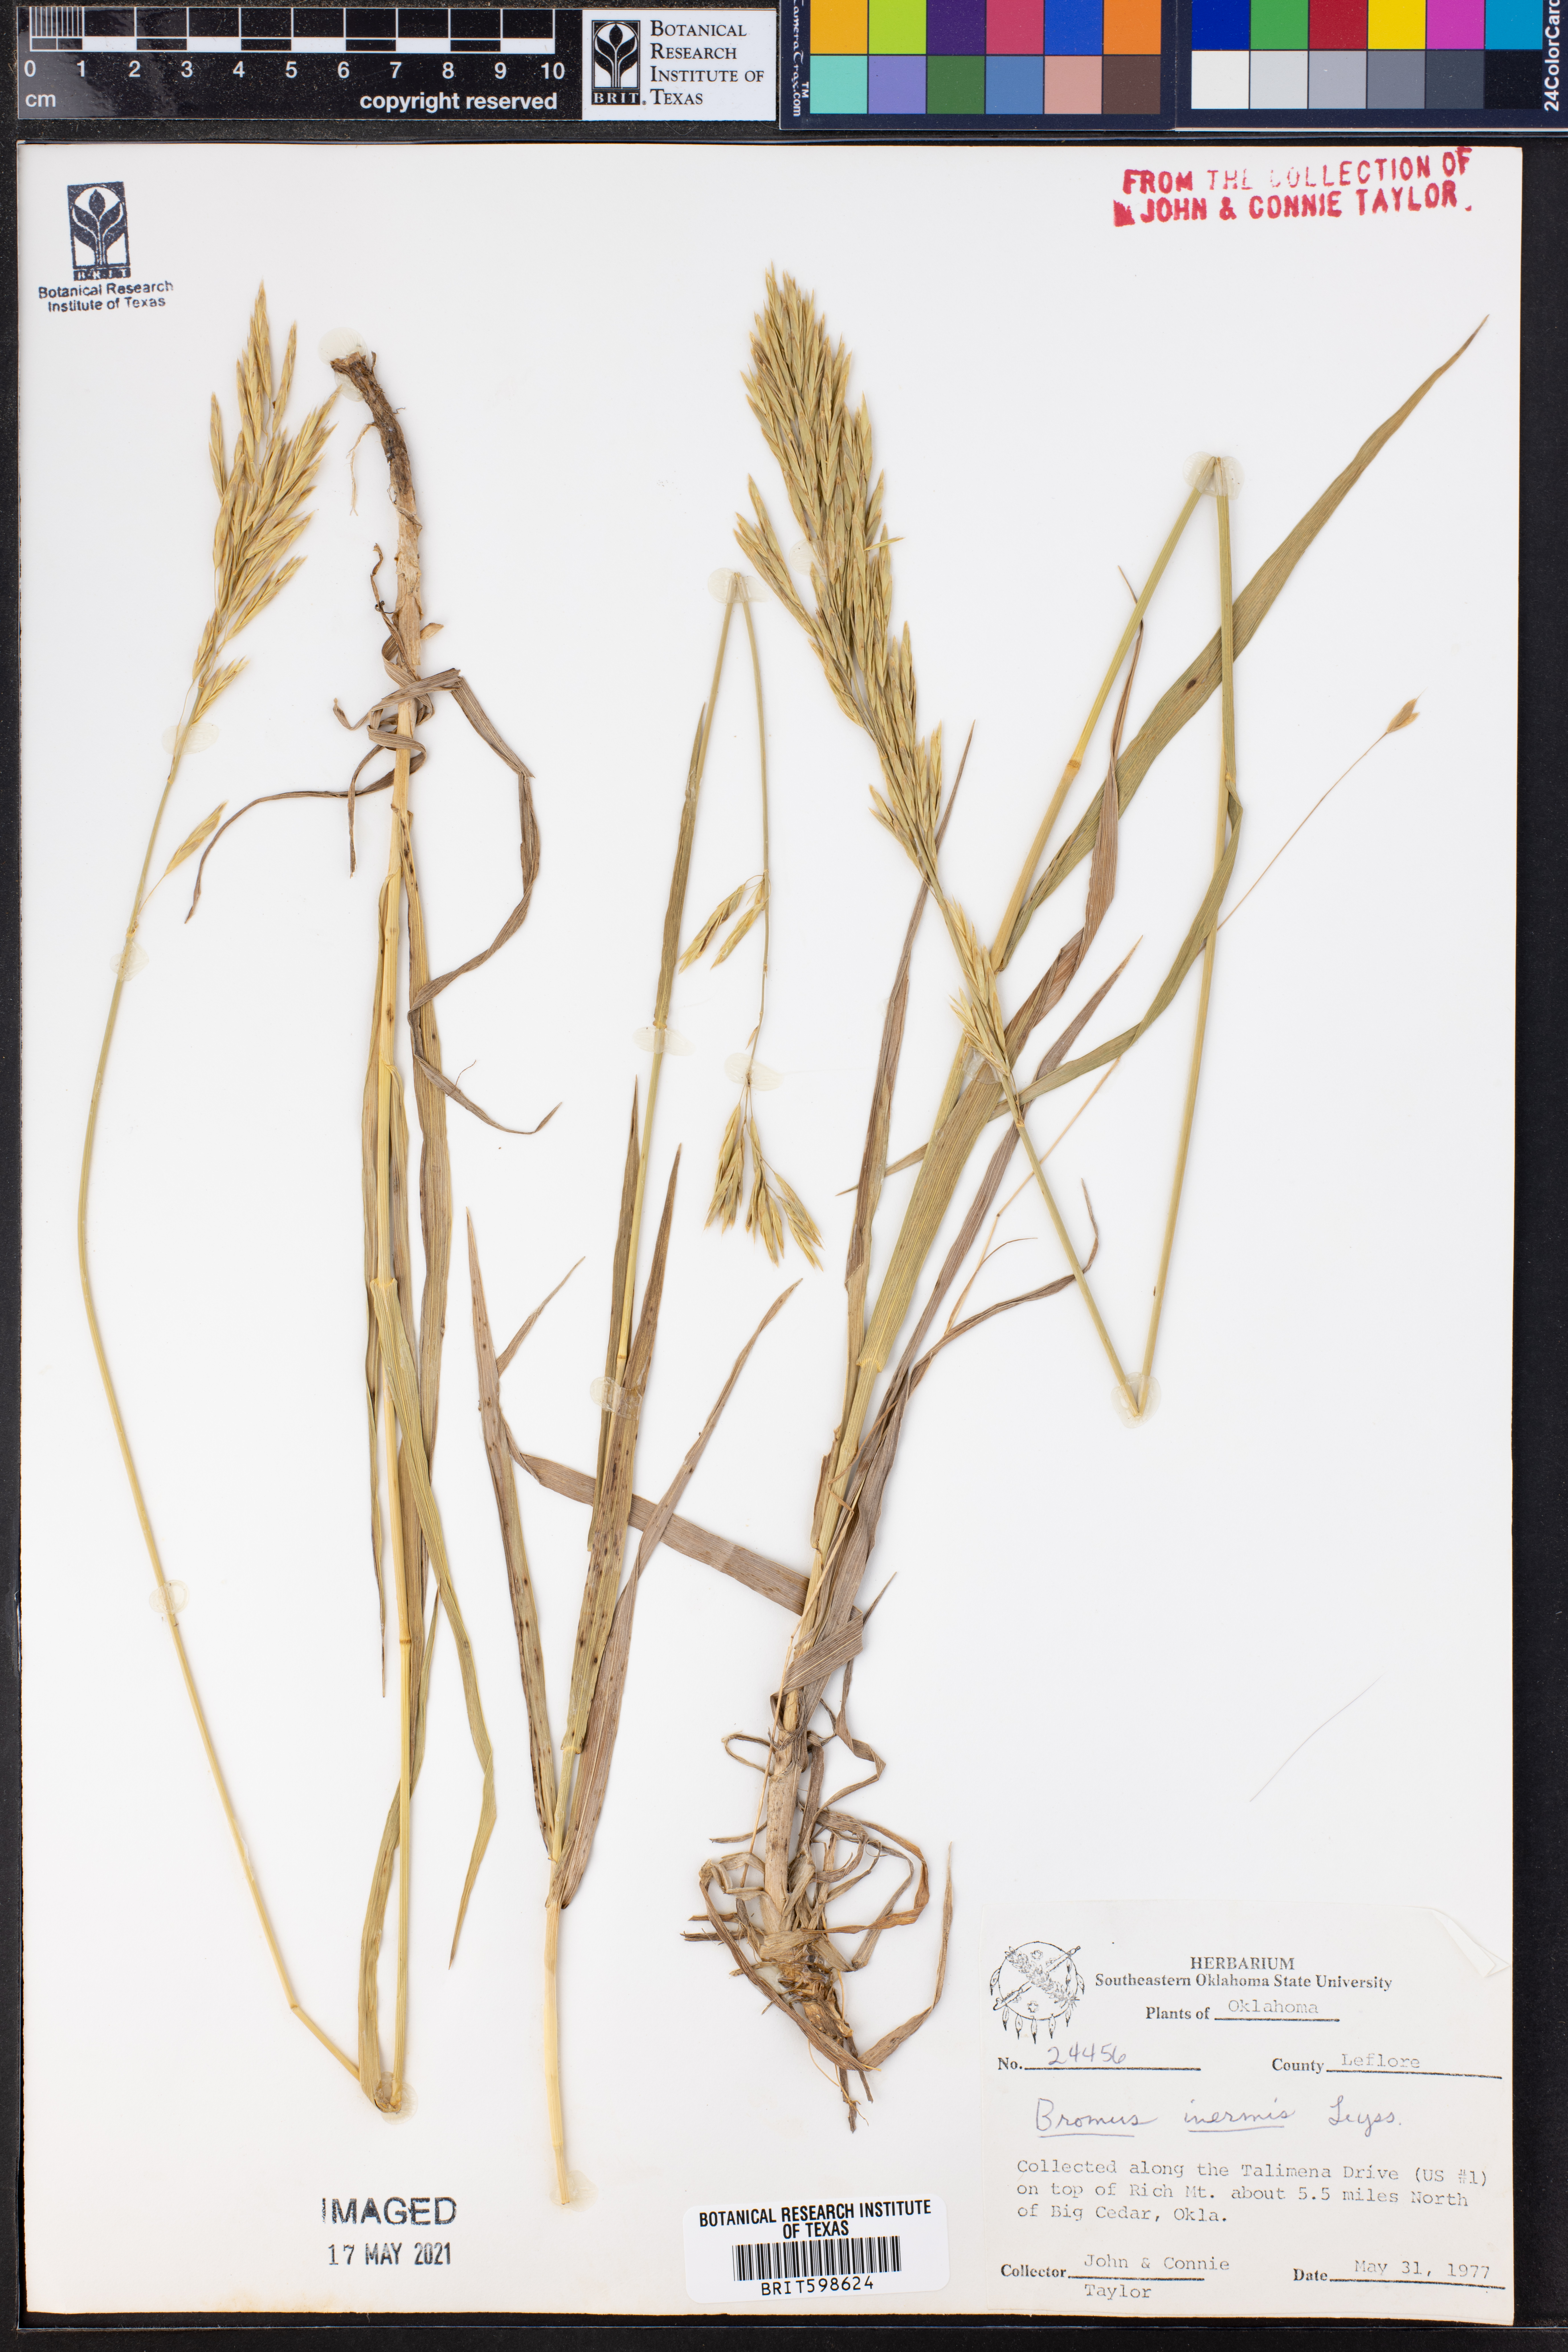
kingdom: Plantae
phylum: Tracheophyta
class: Liliopsida
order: Poales
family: Poaceae
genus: Bromus
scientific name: Bromus inermis
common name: Smooth brome
